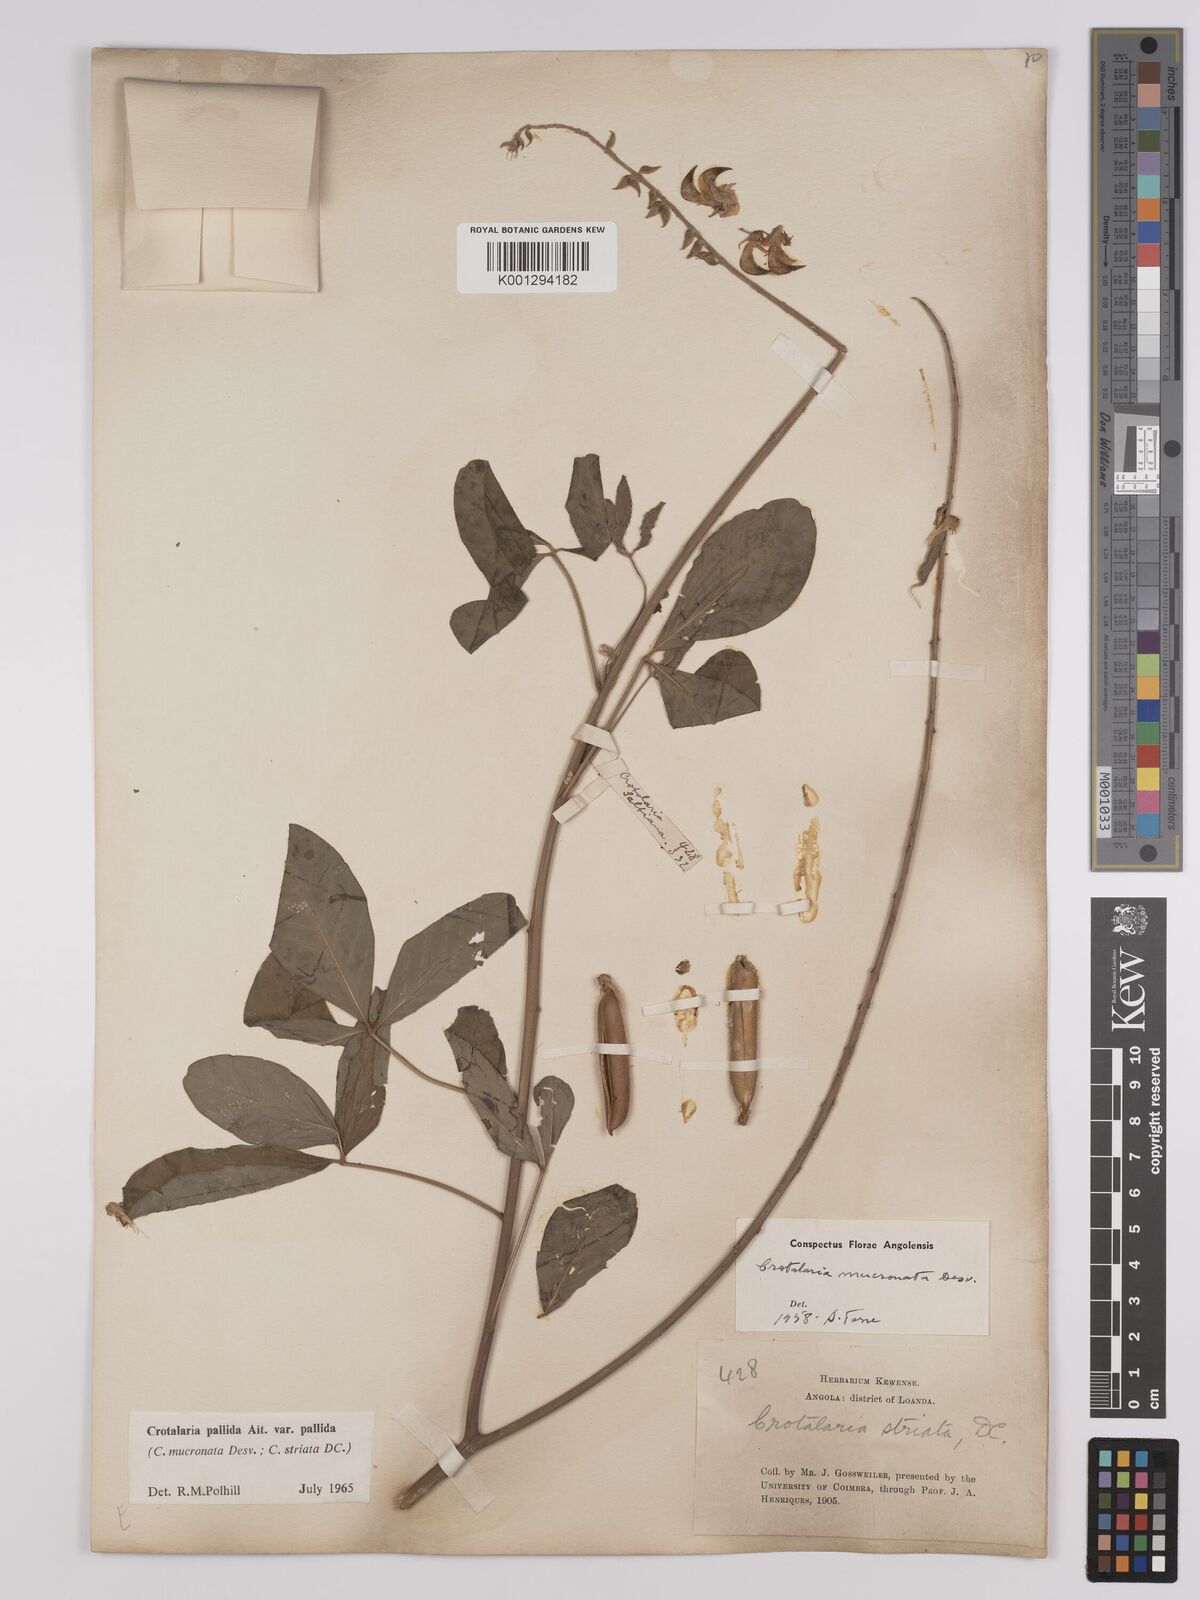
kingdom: Plantae
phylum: Tracheophyta
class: Magnoliopsida
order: Fabales
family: Fabaceae
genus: Crotalaria
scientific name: Crotalaria pallida
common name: Smooth rattlebox
